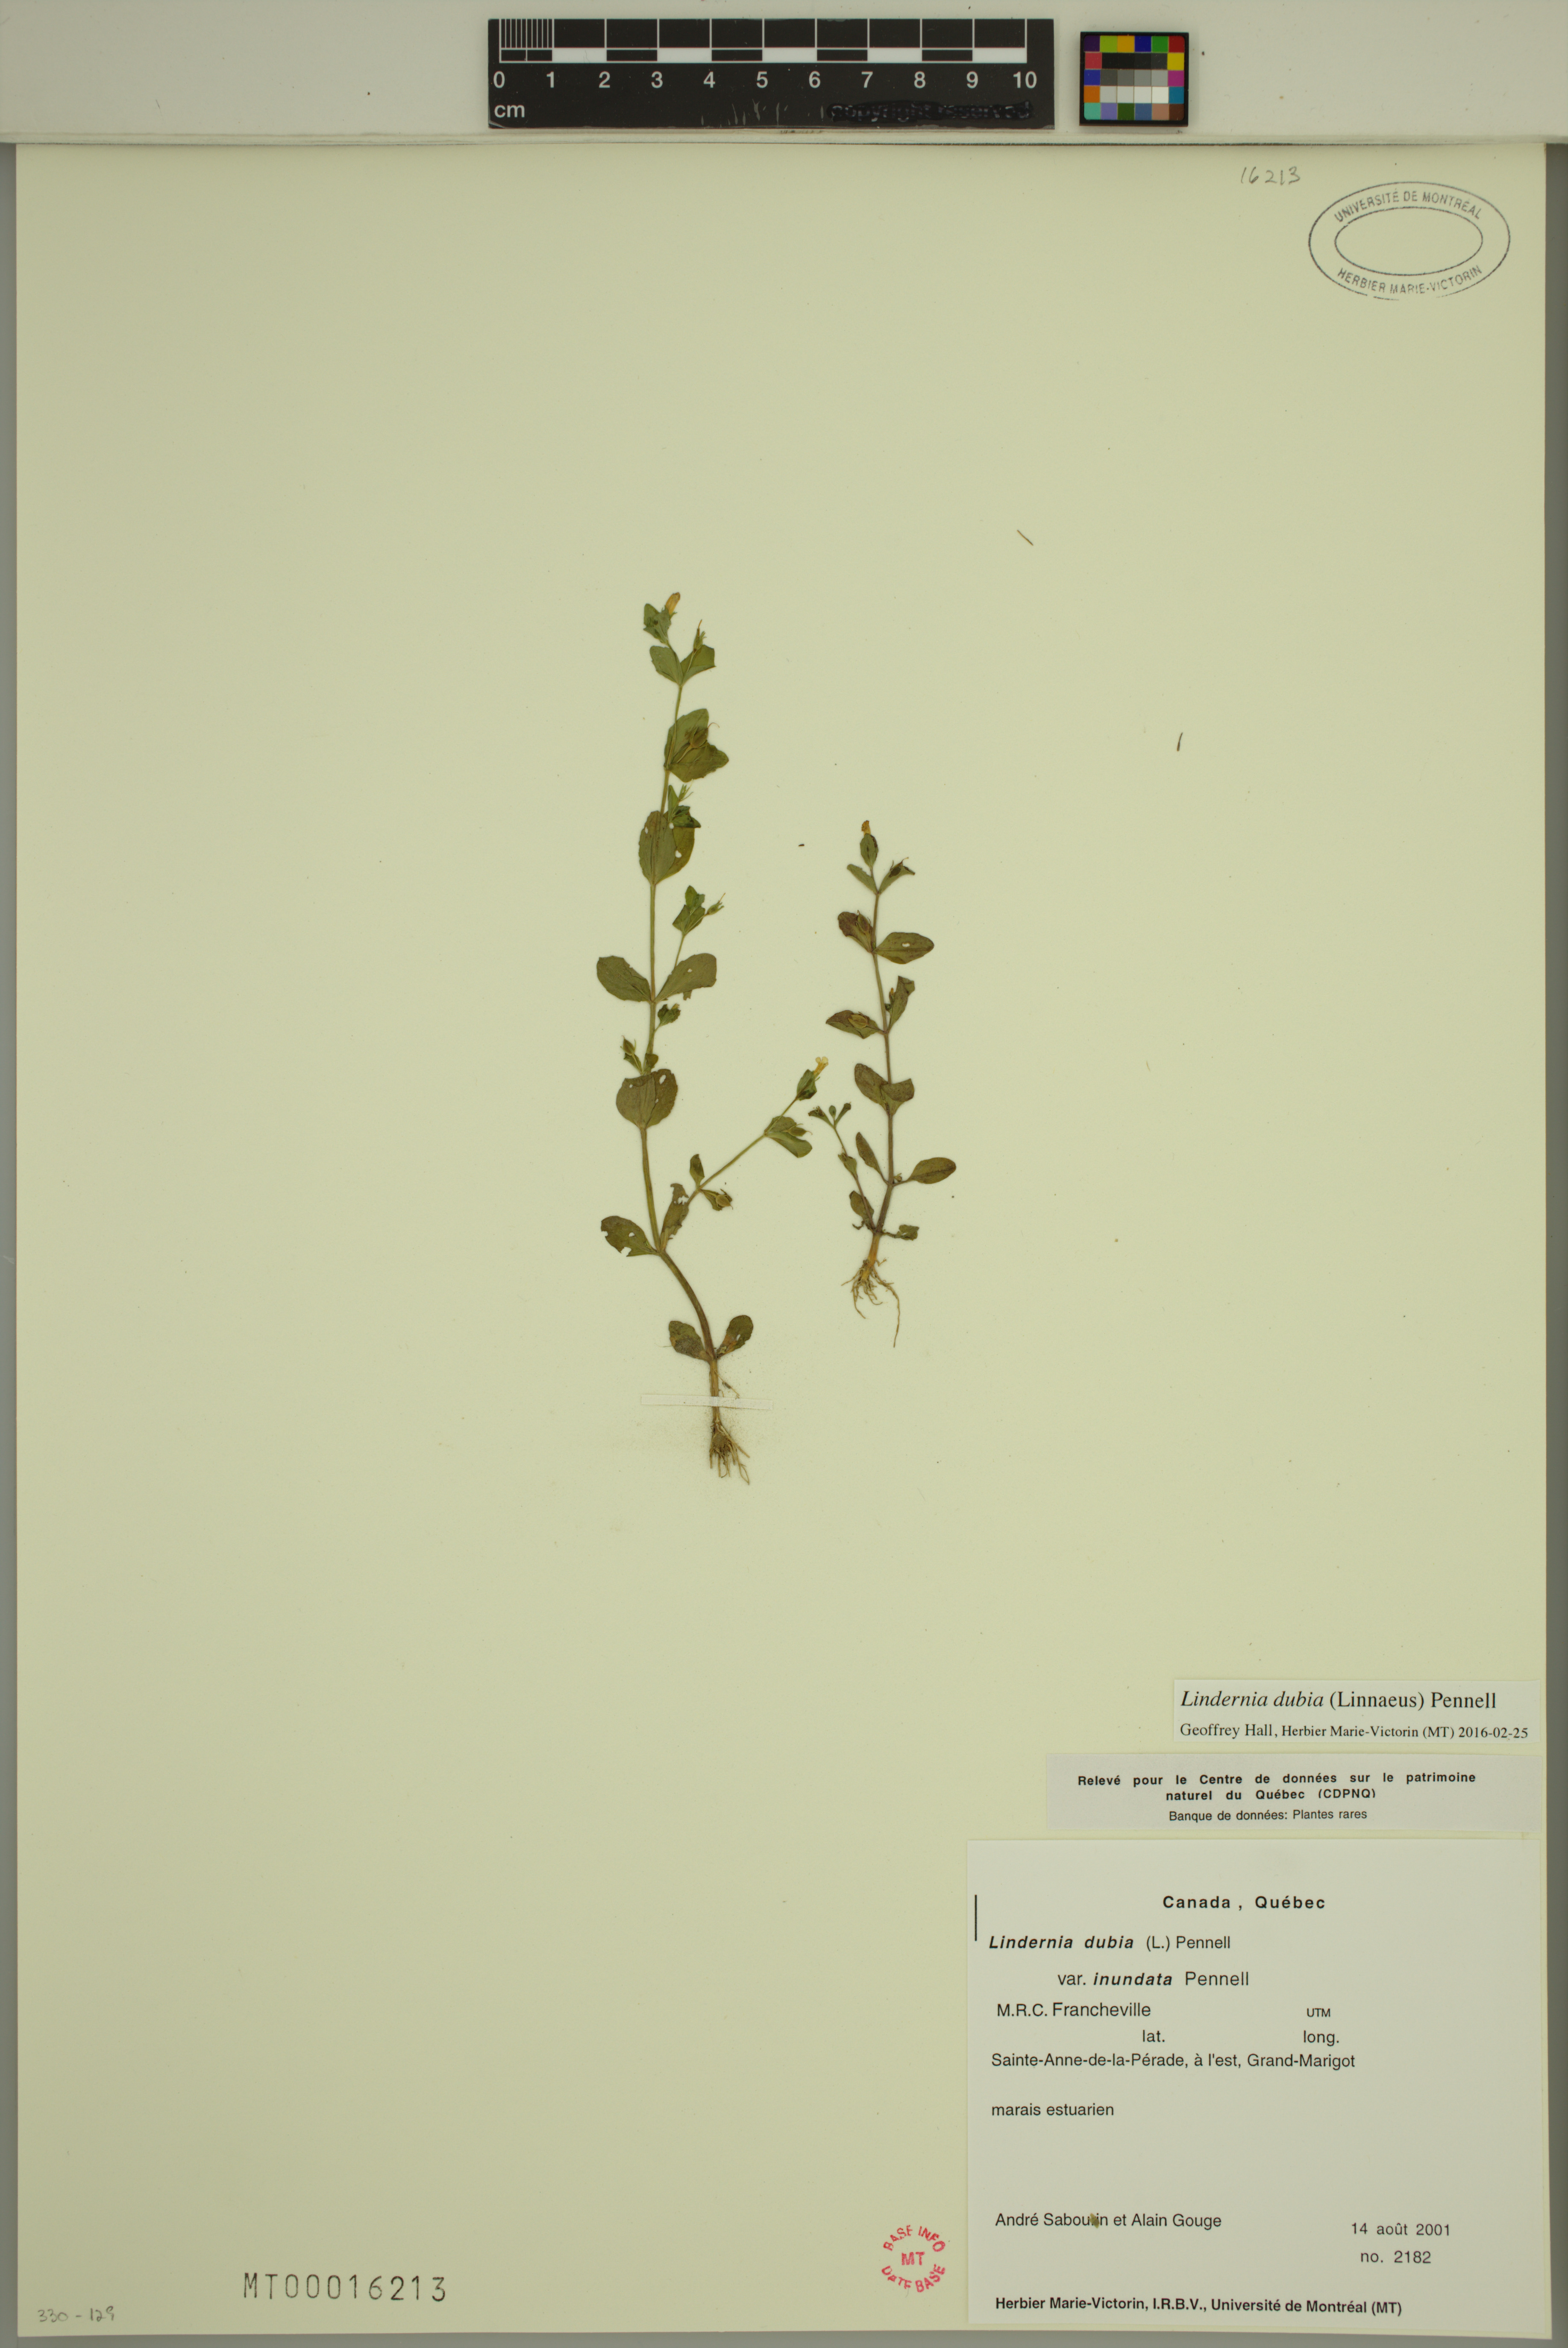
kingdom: Plantae
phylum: Tracheophyta
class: Magnoliopsida
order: Lamiales
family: Linderniaceae
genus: Lindernia
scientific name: Lindernia dubia
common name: Annual false pimpernel
